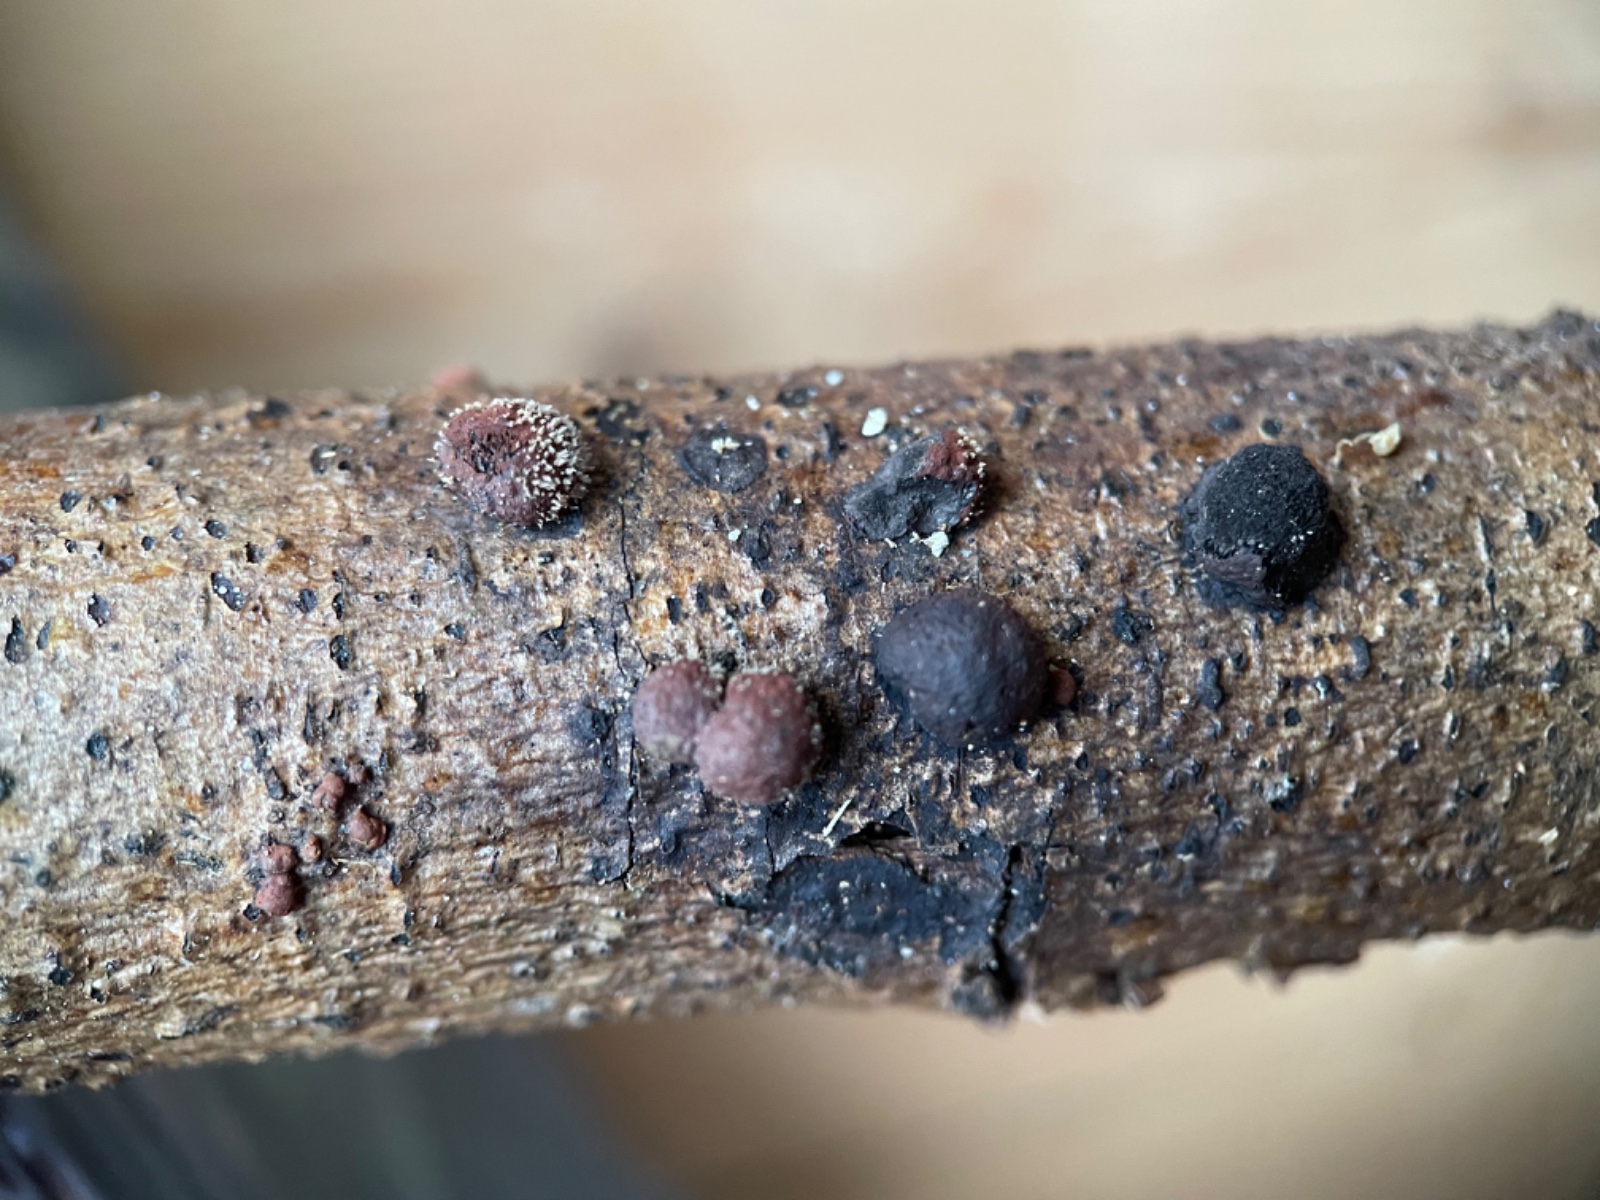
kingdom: Fungi
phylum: Ascomycota
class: Sordariomycetes
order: Xylariales
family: Hypoxylaceae
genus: Hypoxylon
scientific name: Hypoxylon
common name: kulbær
